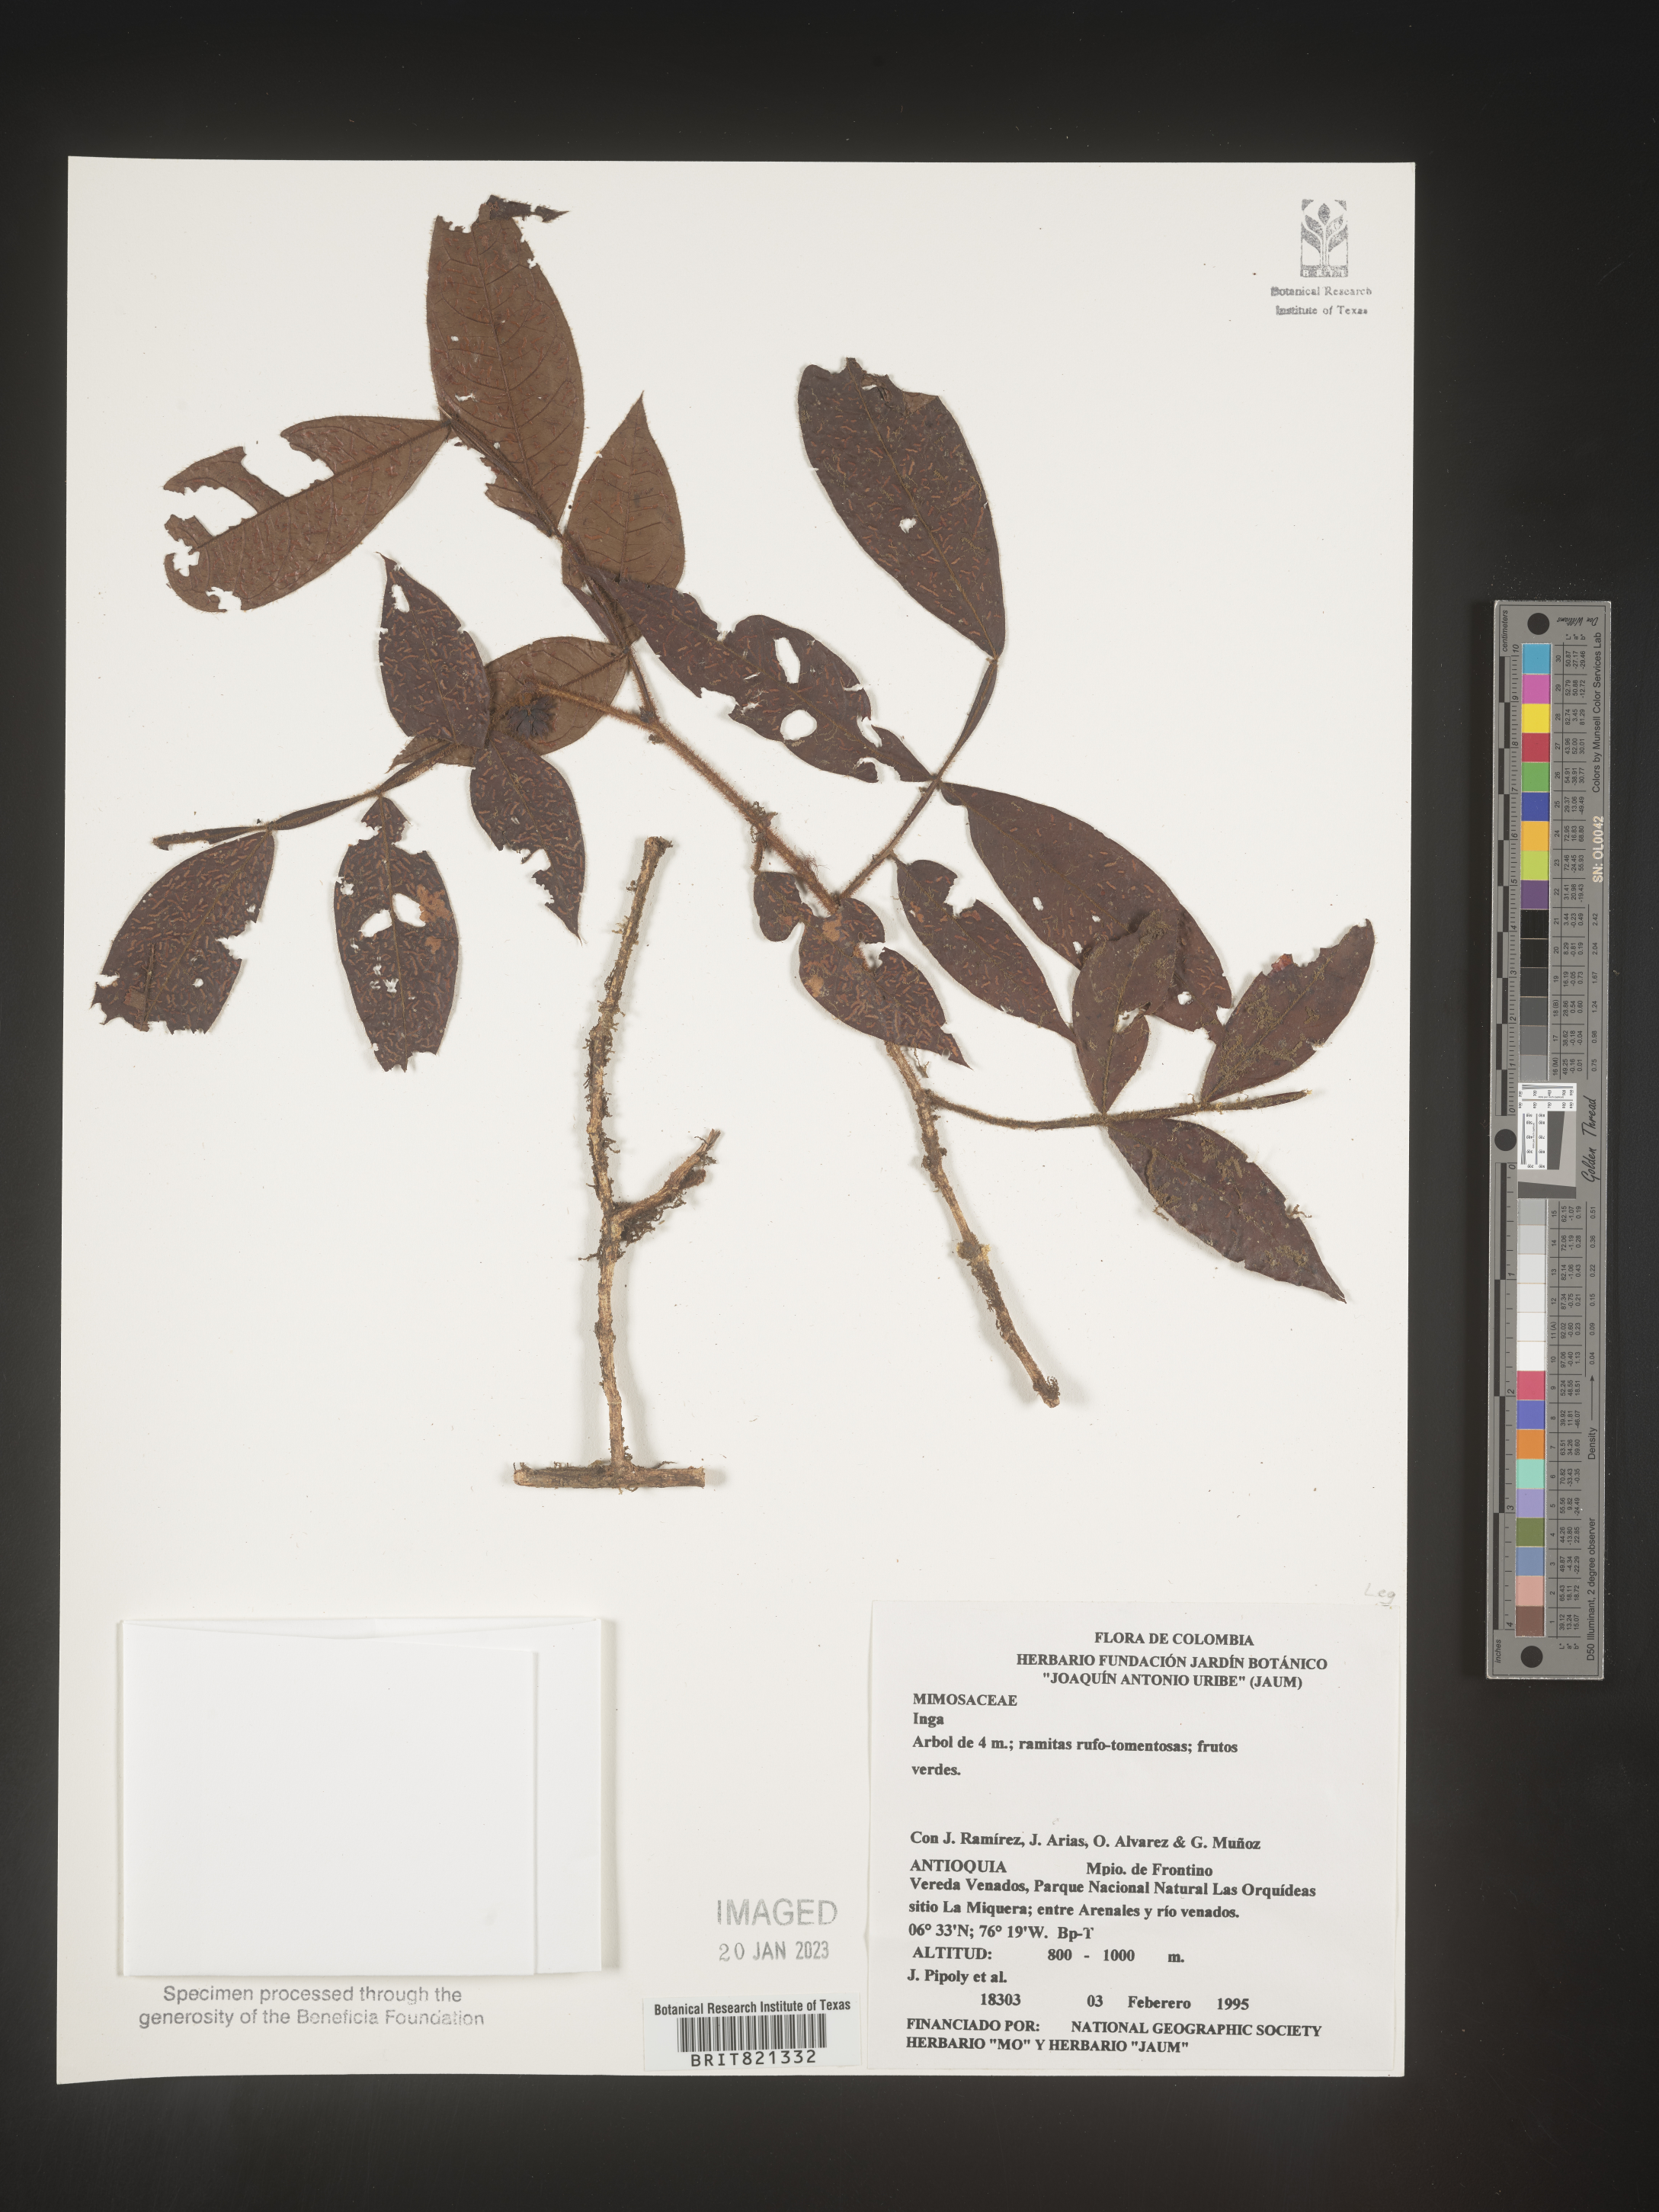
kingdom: Plantae
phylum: Tracheophyta
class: Magnoliopsida
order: Fabales
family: Fabaceae
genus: Inga
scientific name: Inga
